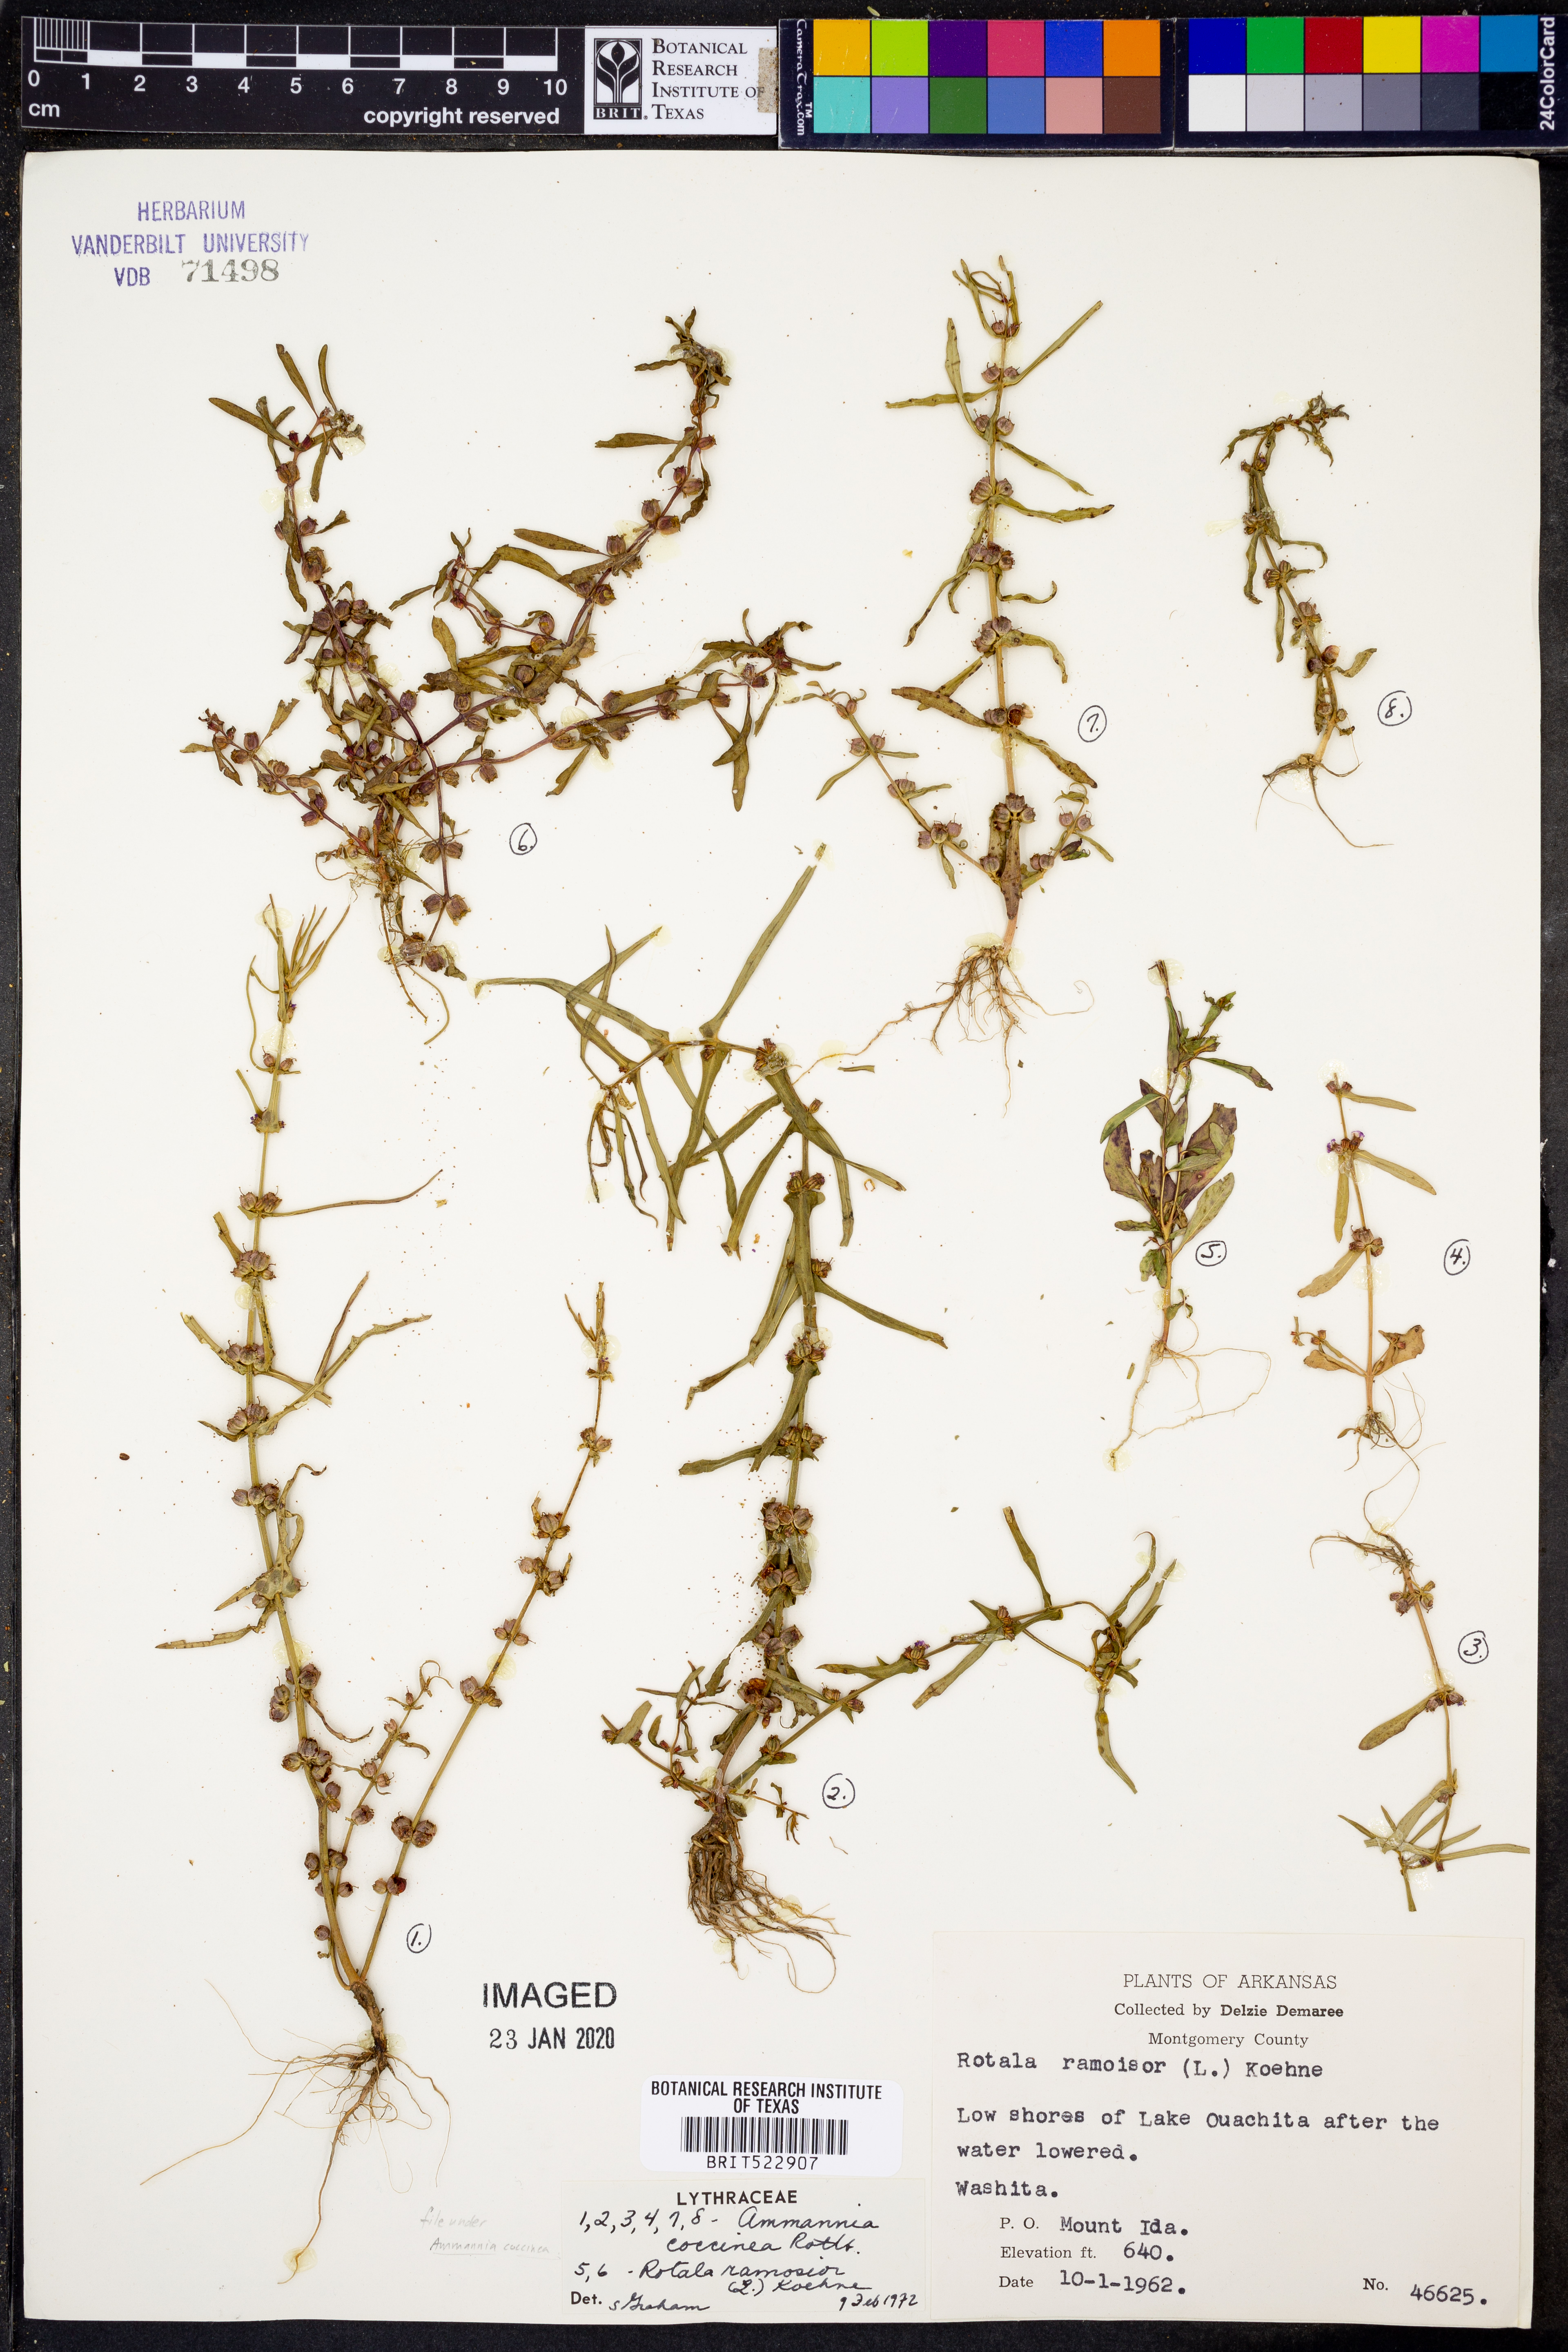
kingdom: Plantae
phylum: Tracheophyta
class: Magnoliopsida
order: Myrtales
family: Lythraceae
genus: Ammannia
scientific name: Ammannia coccinea
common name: Valley redstem
